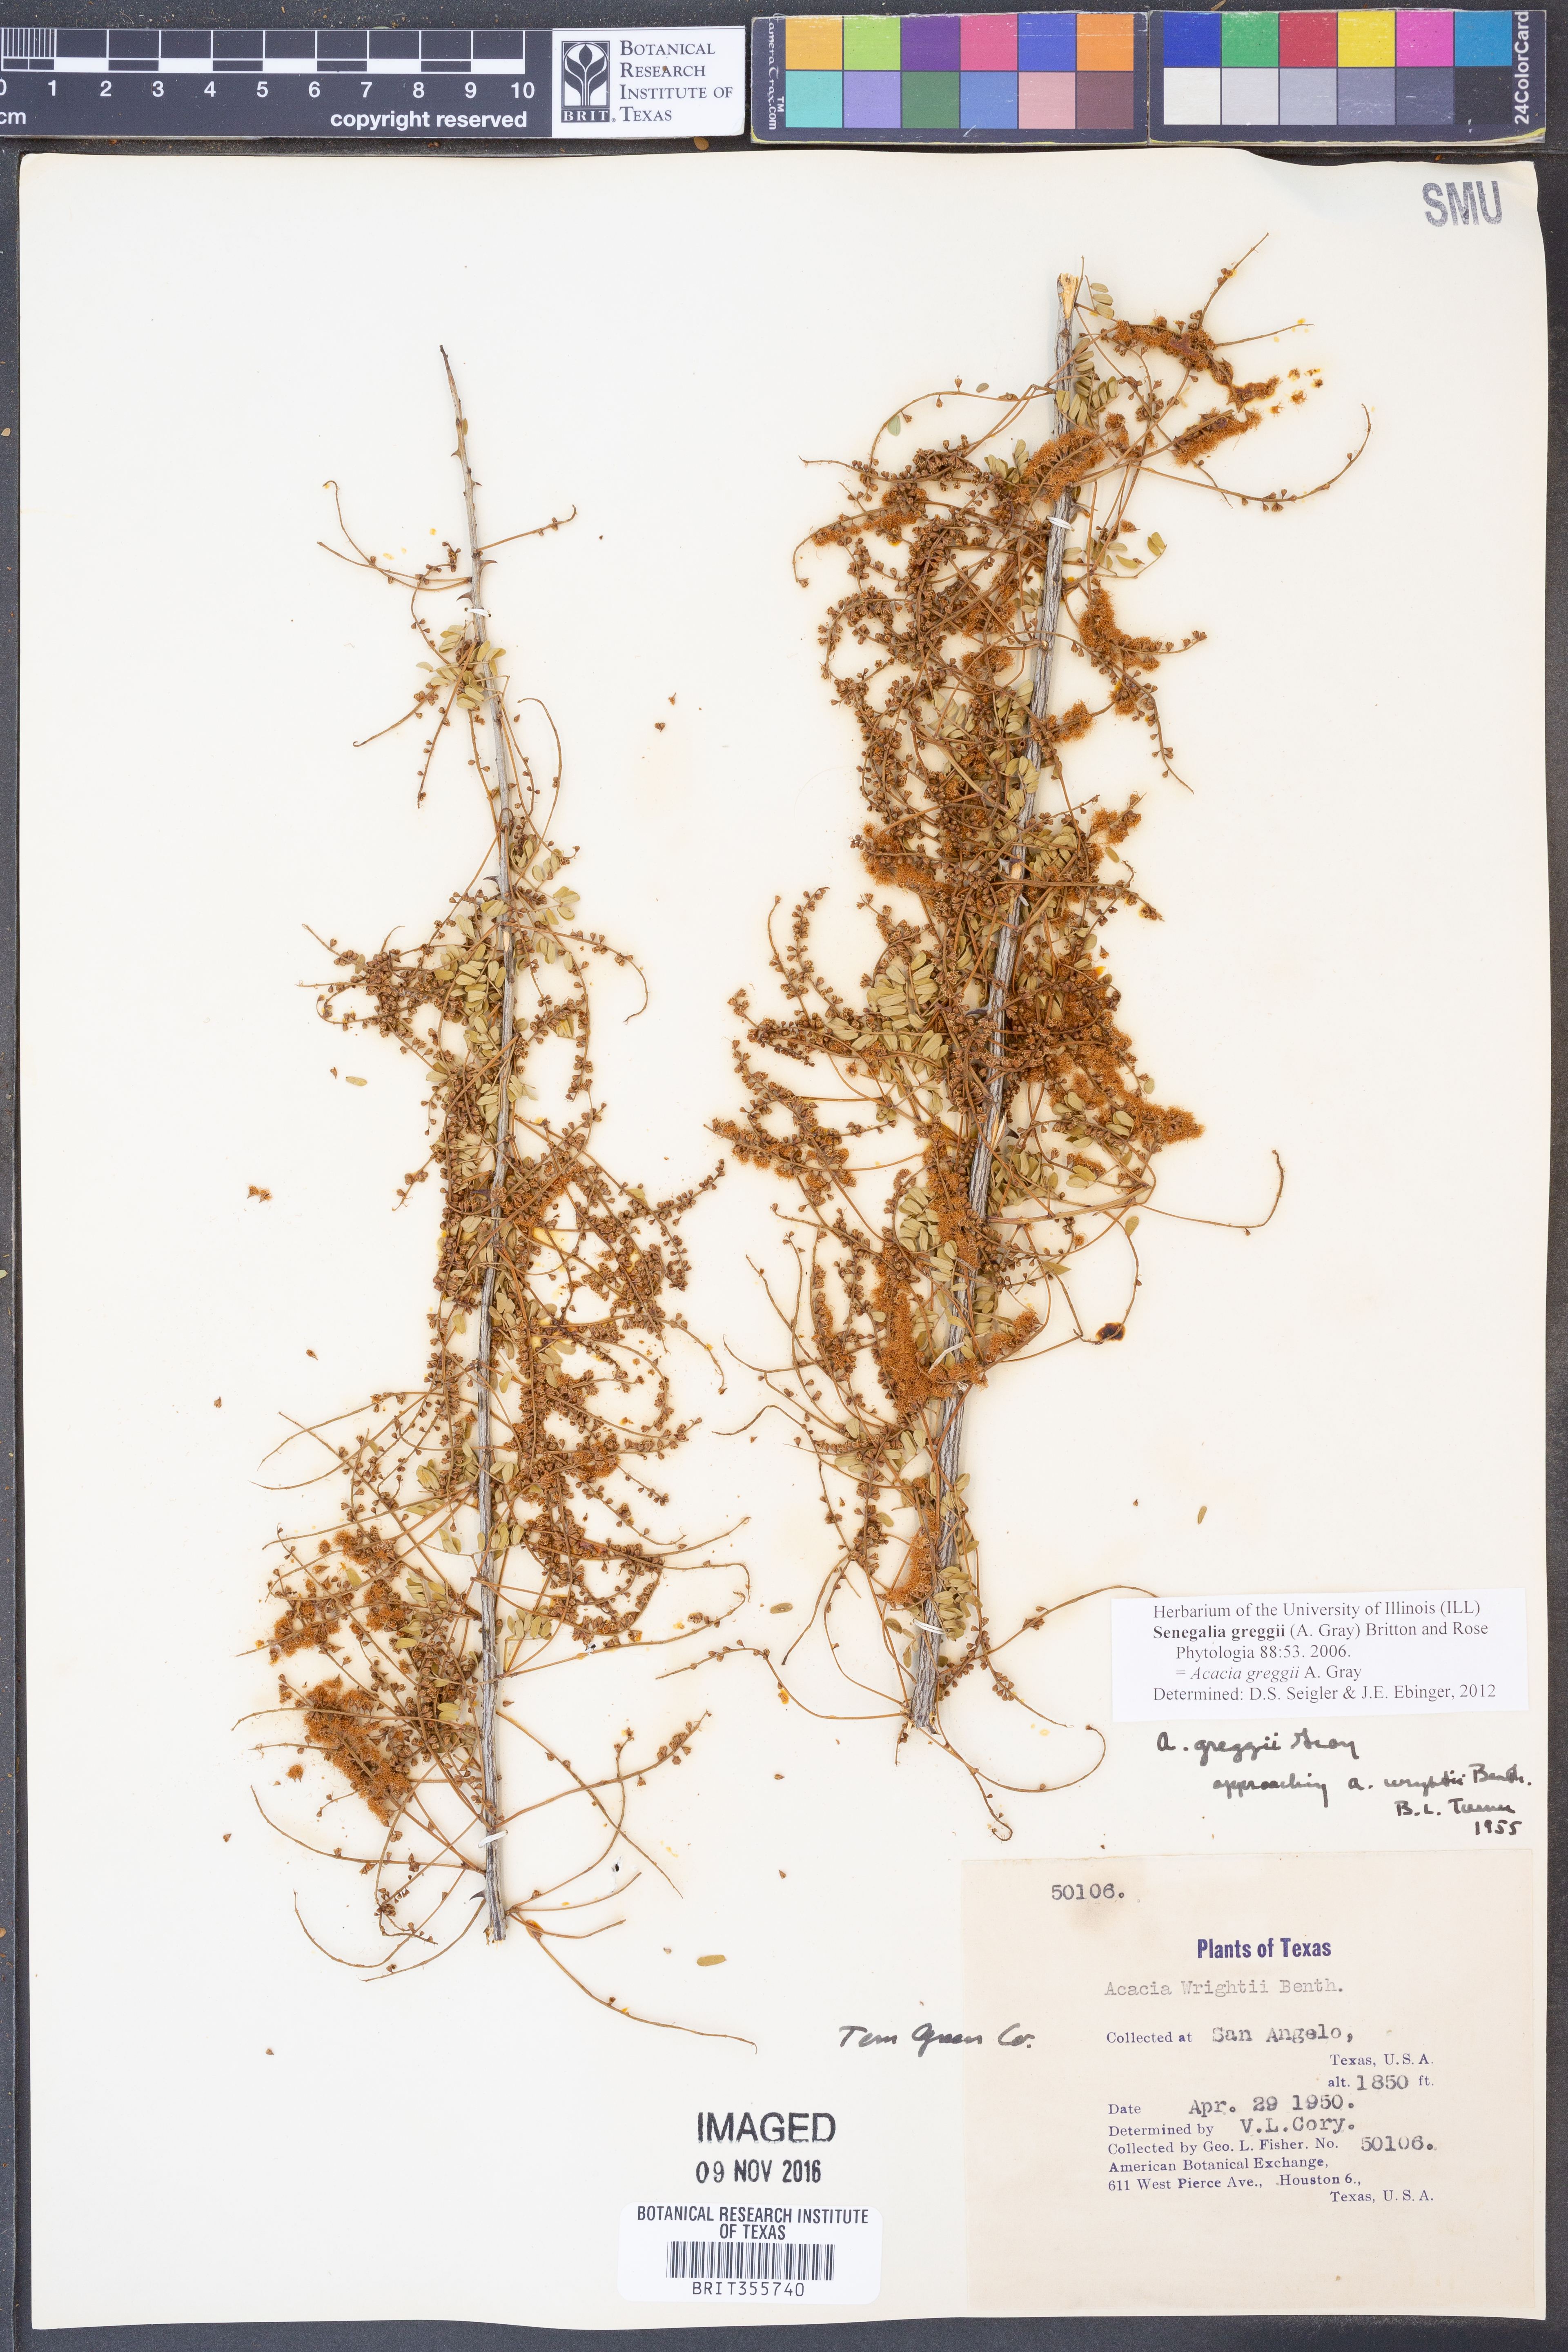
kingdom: Plantae
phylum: Tracheophyta
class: Magnoliopsida
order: Fabales
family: Fabaceae
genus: Senegalia
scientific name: Senegalia greggii
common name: Texas-mimosa
